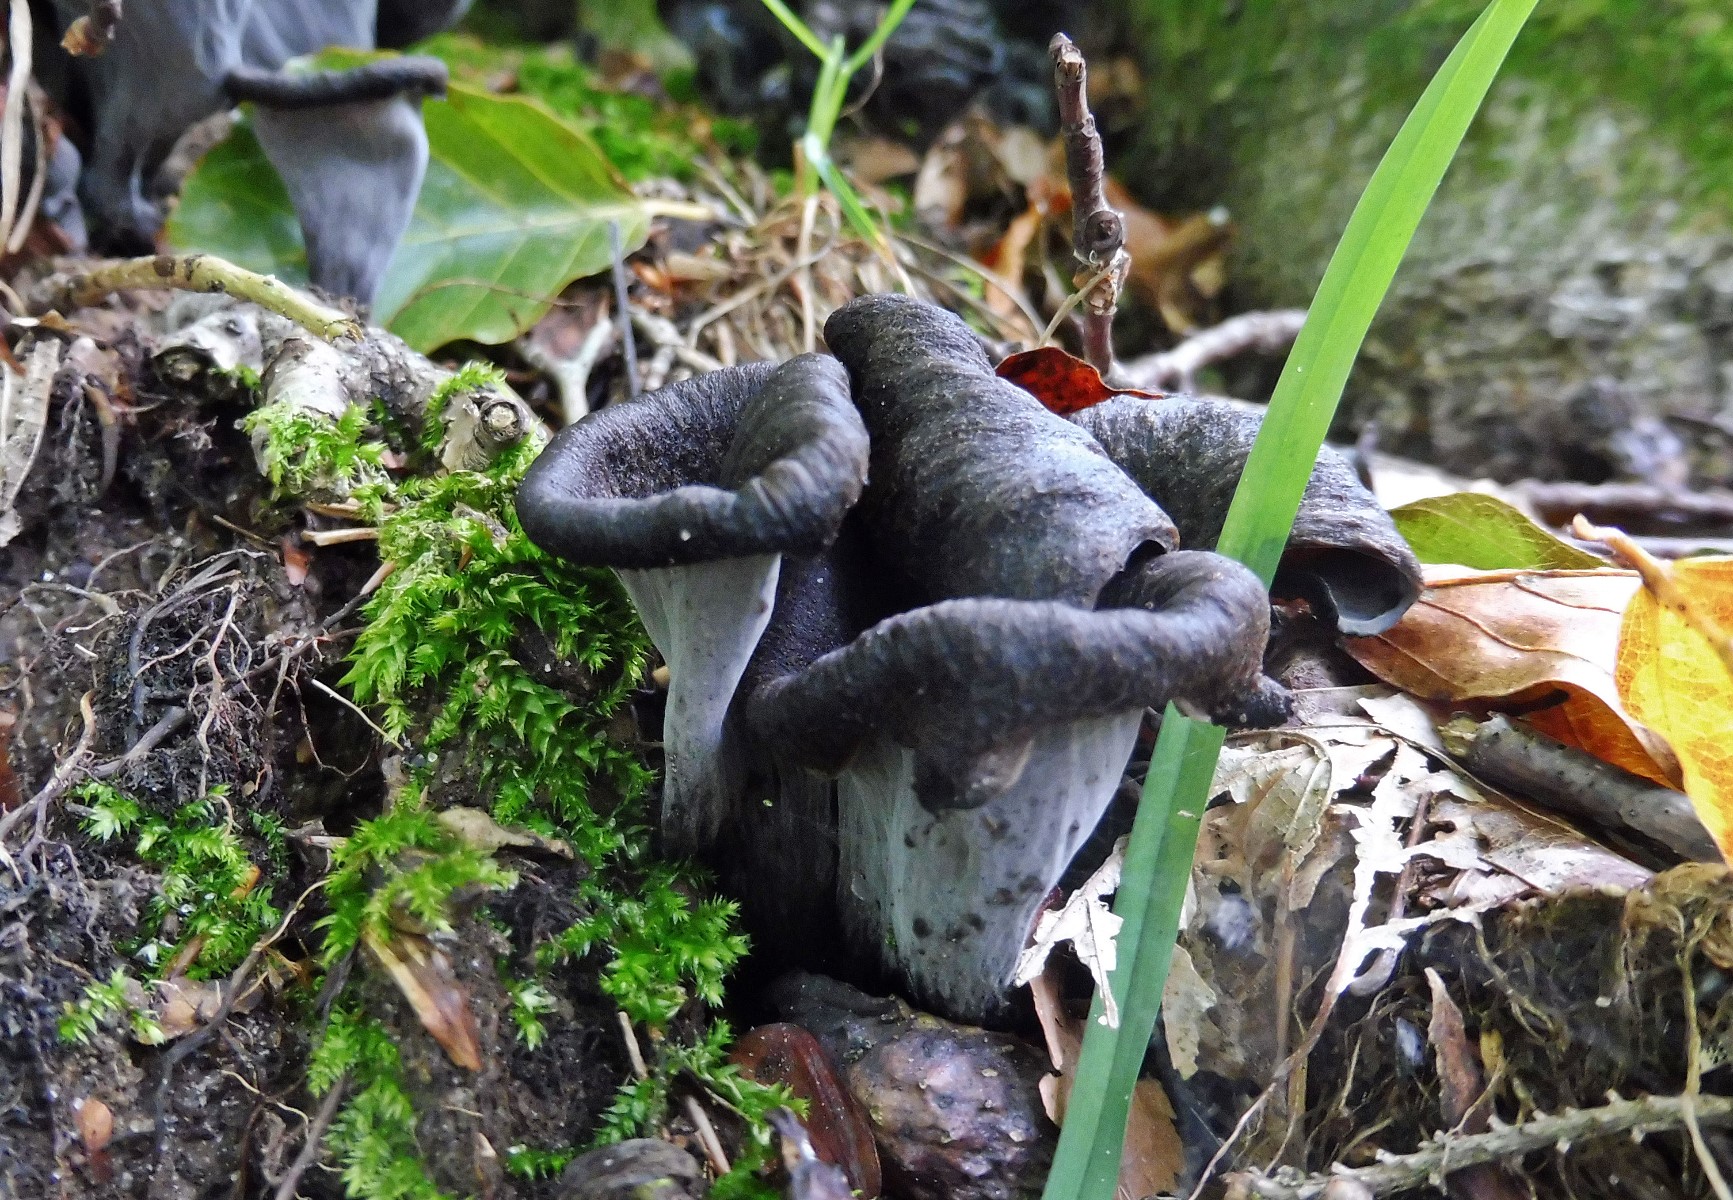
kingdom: Fungi
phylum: Basidiomycota
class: Agaricomycetes
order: Cantharellales
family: Hydnaceae
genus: Craterellus
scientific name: Craterellus cornucopioides
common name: trompetsvamp
